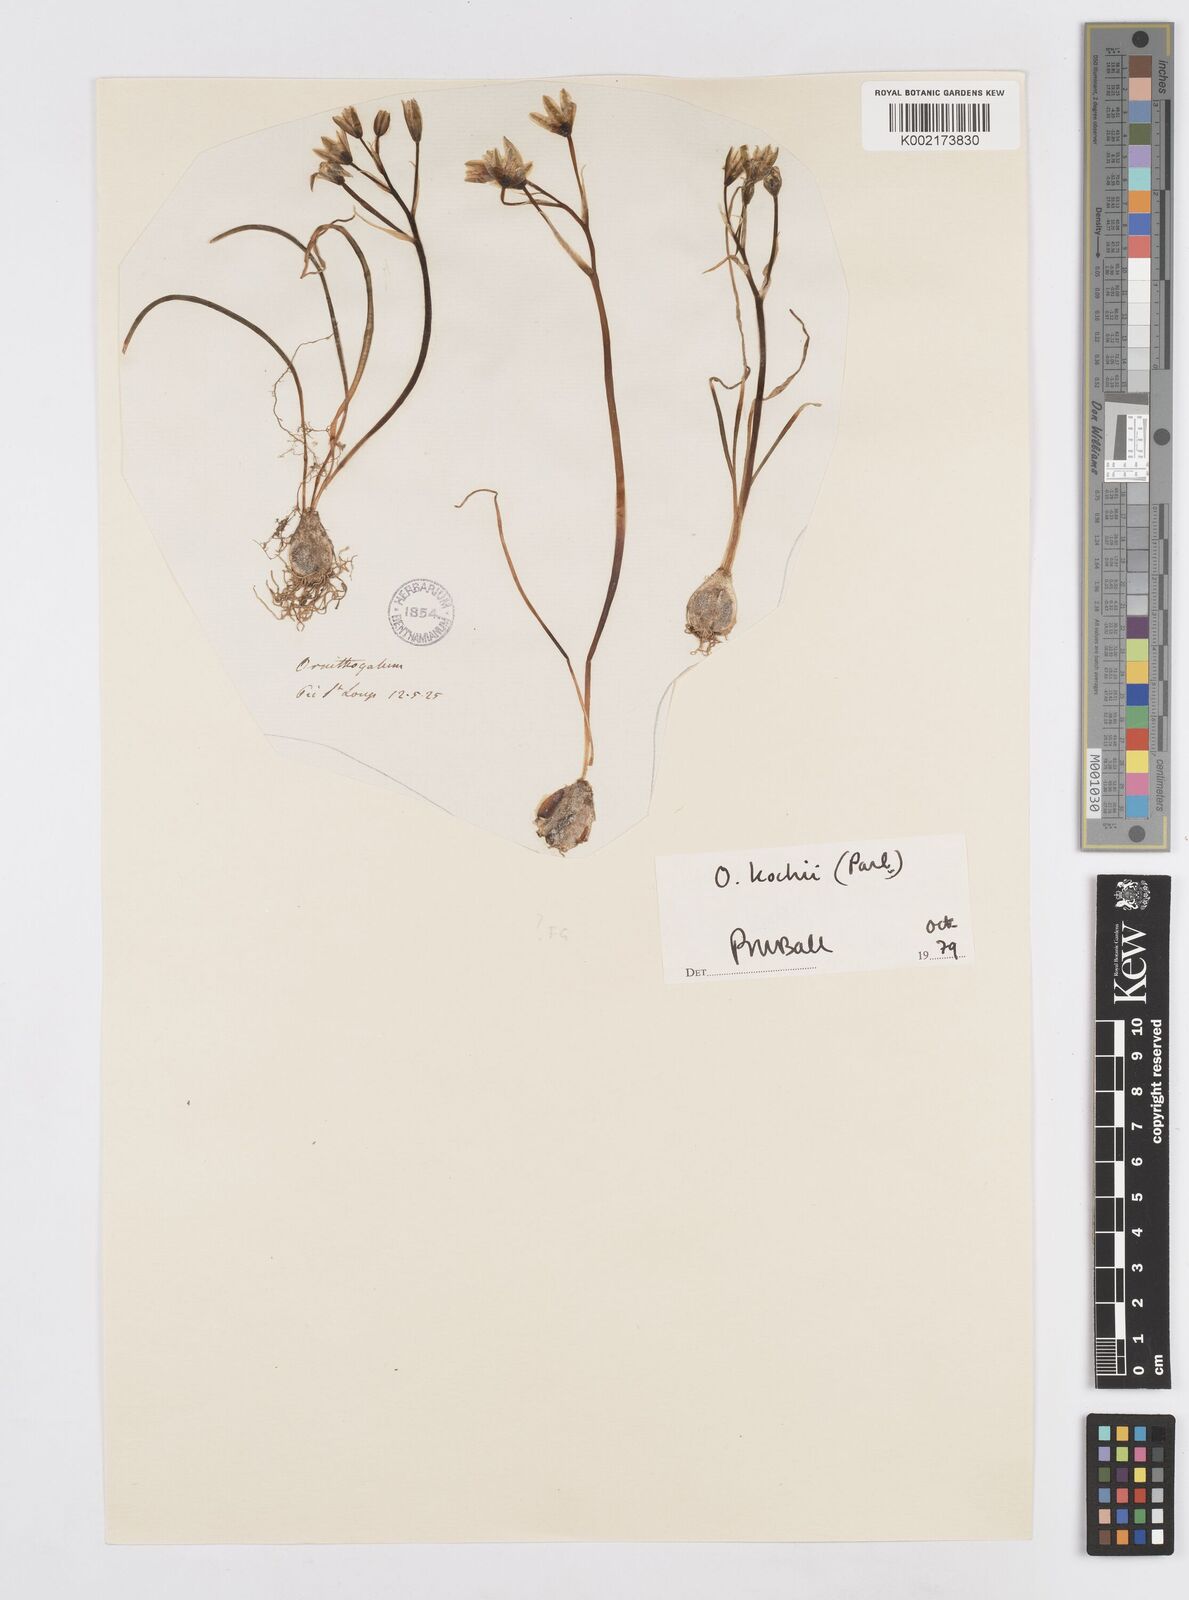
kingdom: Plantae
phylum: Tracheophyta
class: Liliopsida
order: Asparagales
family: Asparagaceae
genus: Ornithogalum
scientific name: Ornithogalum orthophyllum
